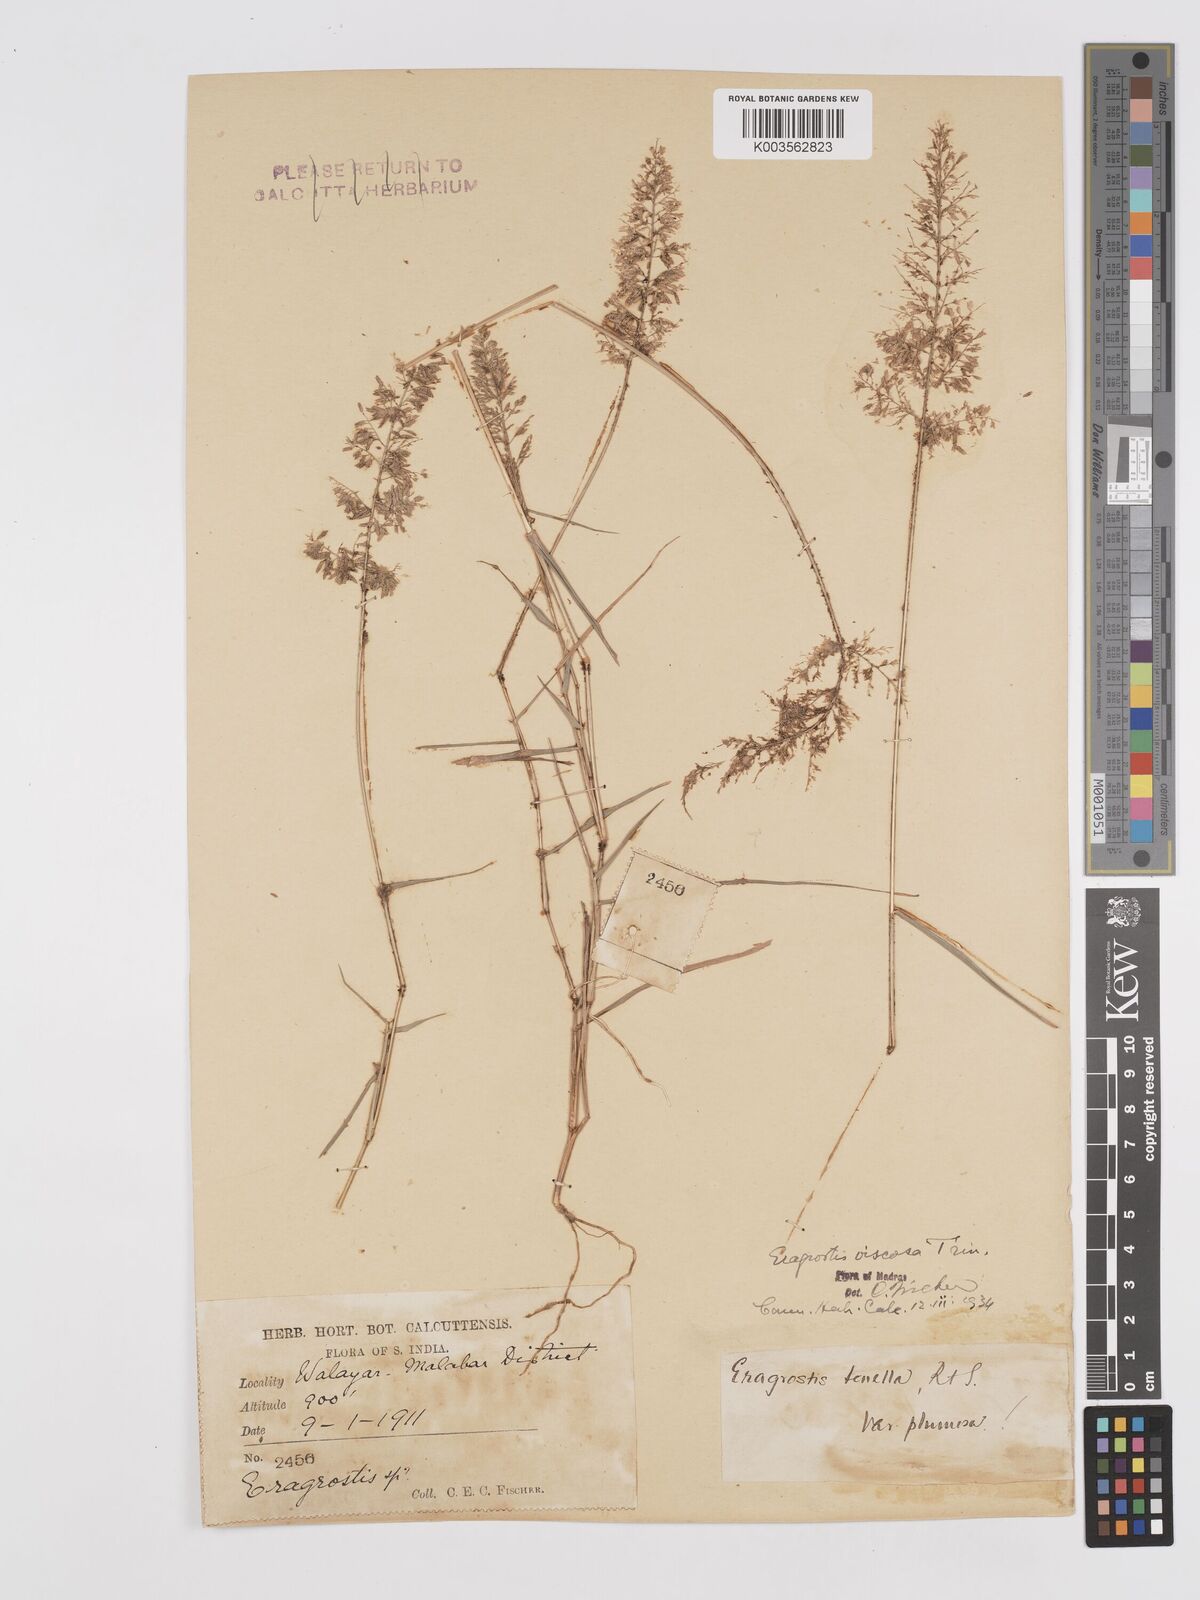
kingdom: Plantae
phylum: Tracheophyta
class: Liliopsida
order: Poales
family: Poaceae
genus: Eragrostis
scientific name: Eragrostis viscosa
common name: Sticky love grass
